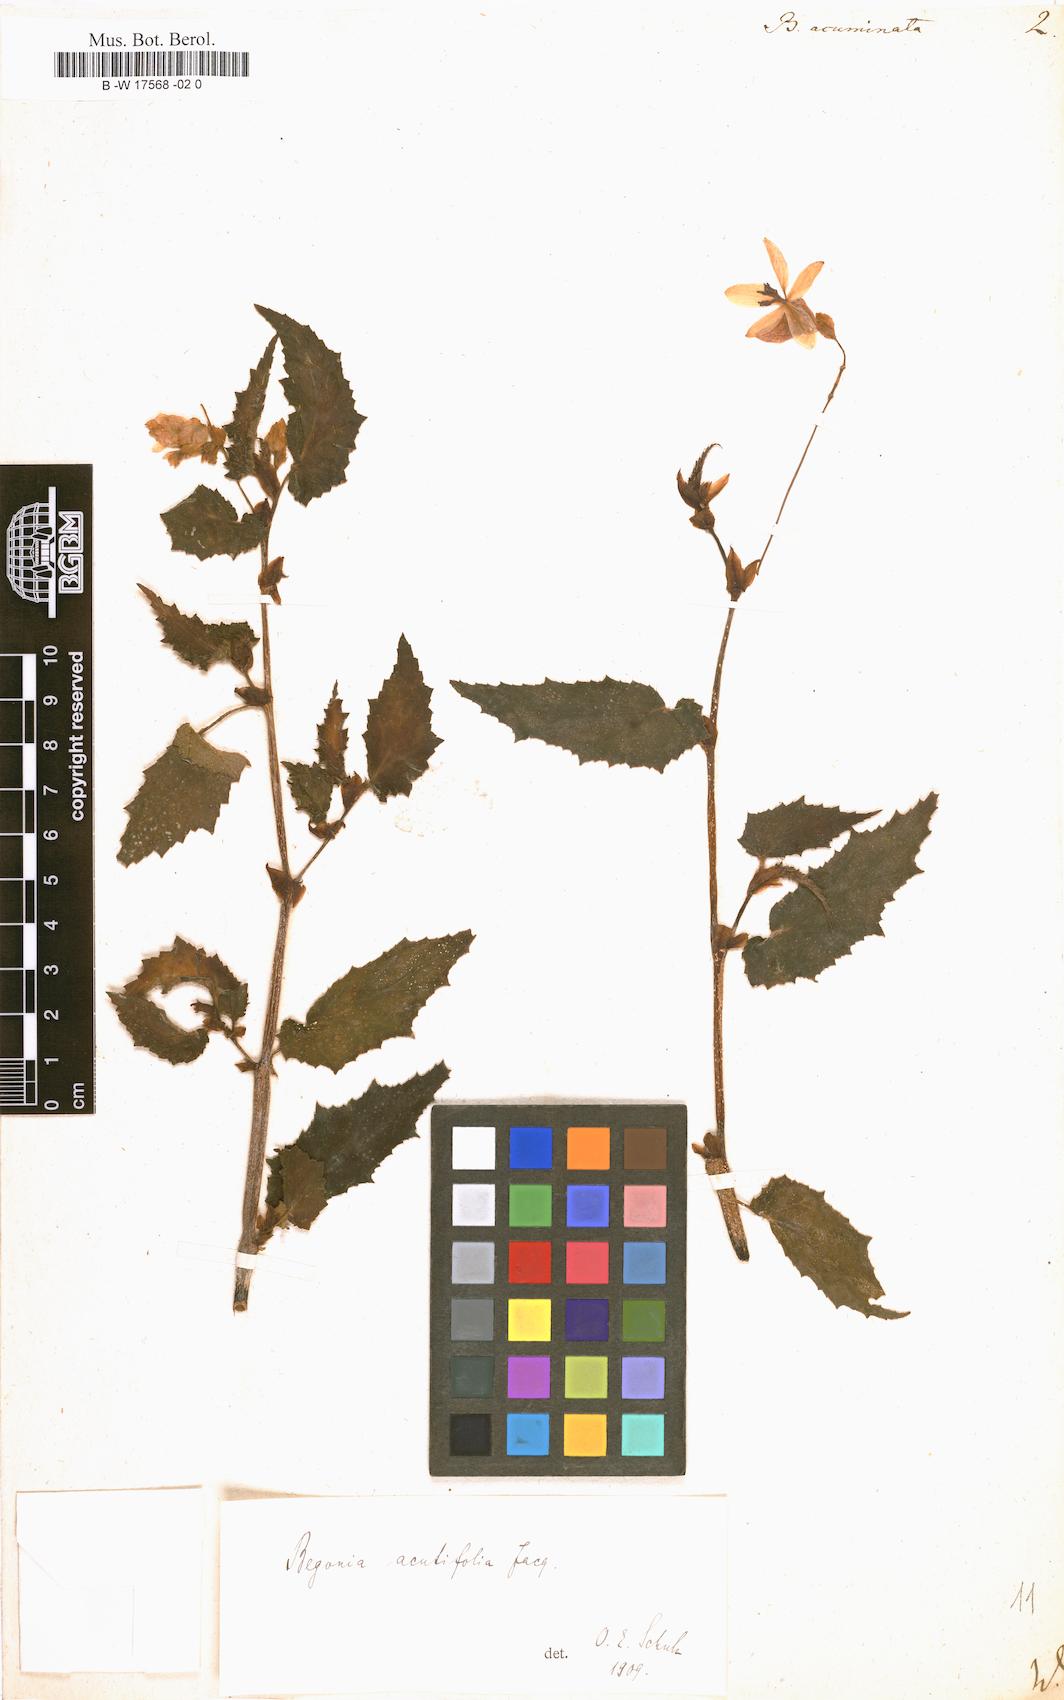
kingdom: Plantae
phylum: Tracheophyta
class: Magnoliopsida
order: Cucurbitales
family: Begoniaceae
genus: Begonia
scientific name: Begonia acutifolia
